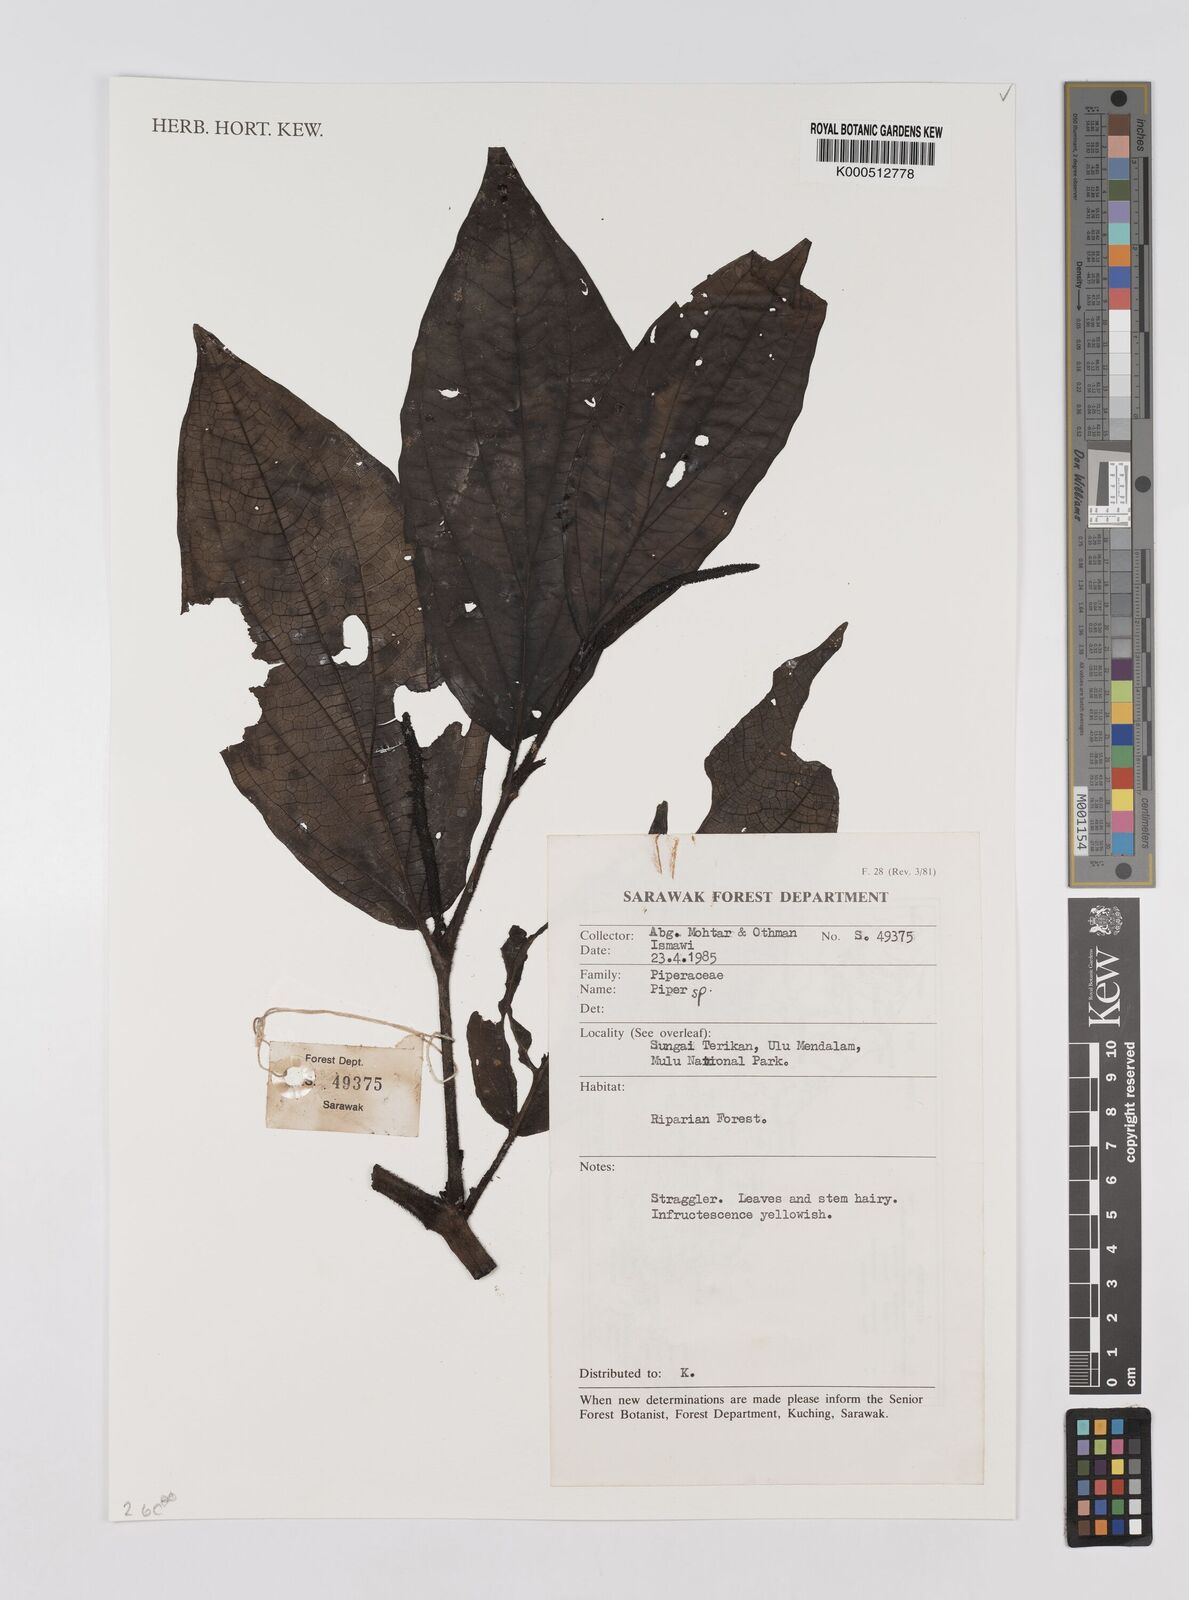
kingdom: Plantae
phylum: Tracheophyta
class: Magnoliopsida
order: Piperales
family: Piperaceae
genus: Piper
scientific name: Piper
